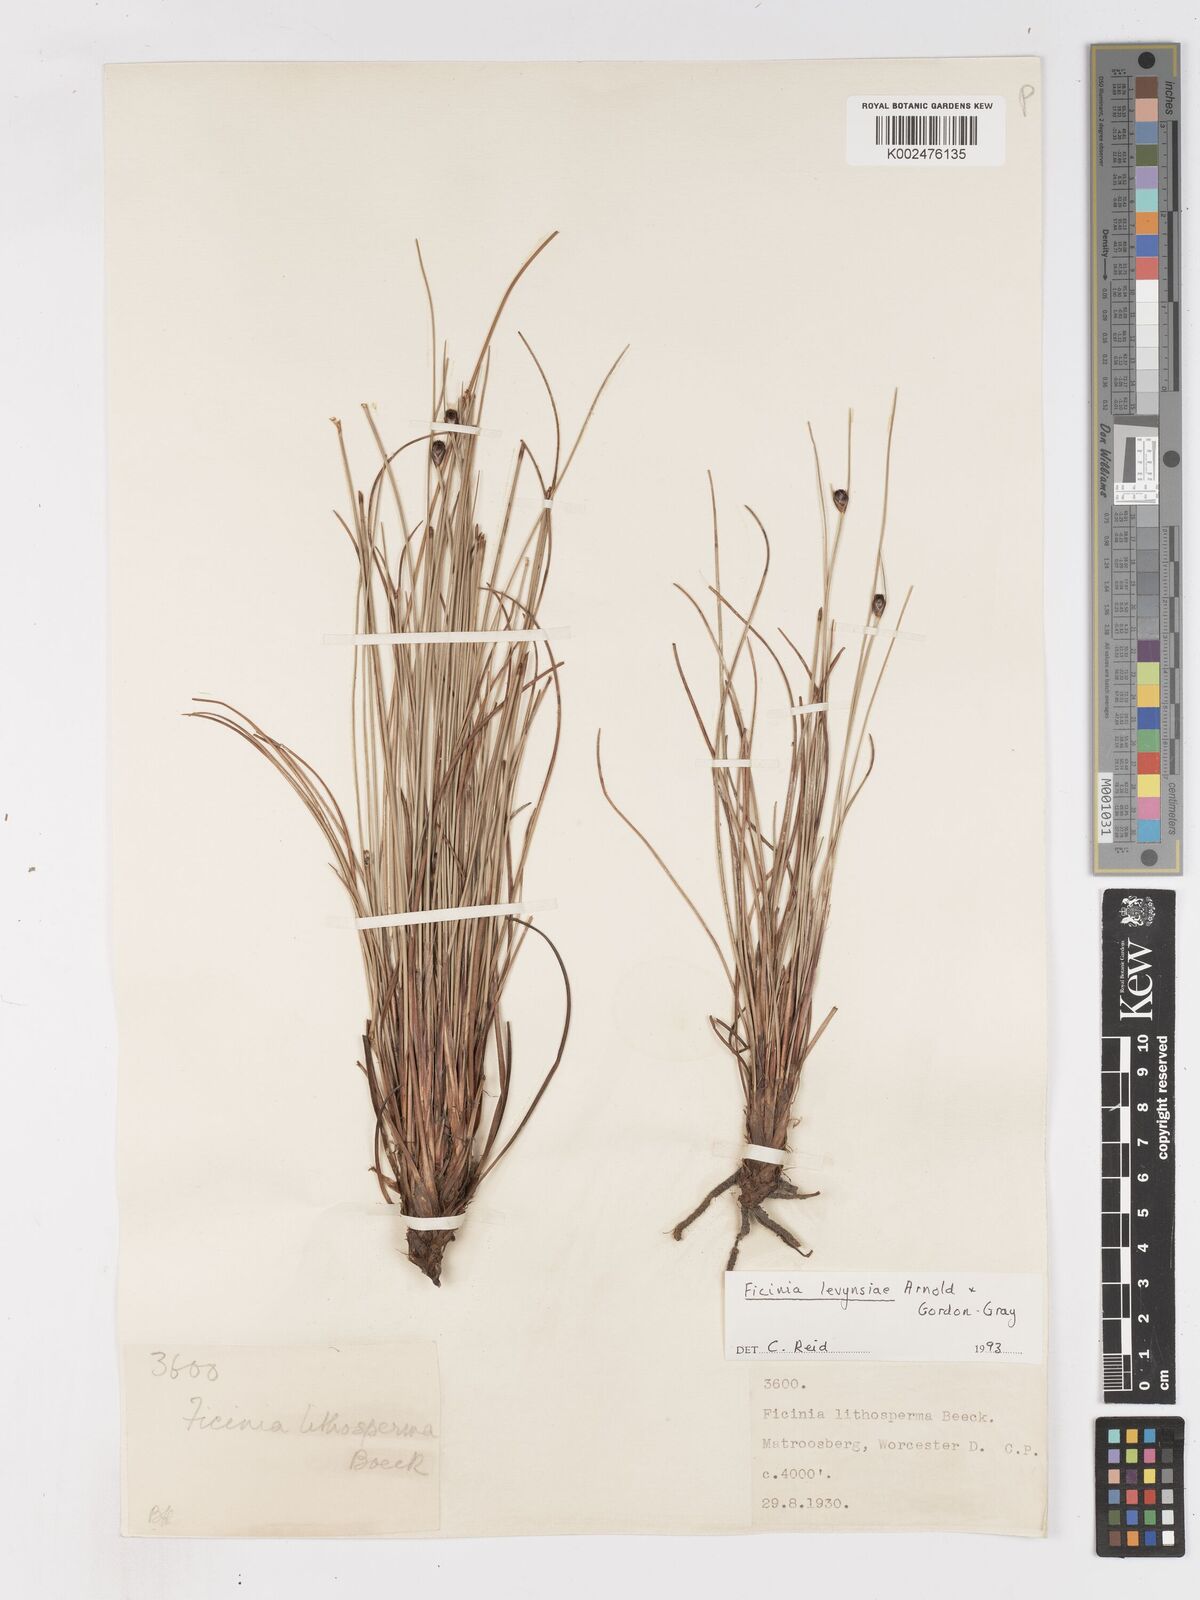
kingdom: Plantae
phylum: Tracheophyta
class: Liliopsida
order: Poales
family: Cyperaceae
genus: Ficinia
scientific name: Ficinia levynsiae
